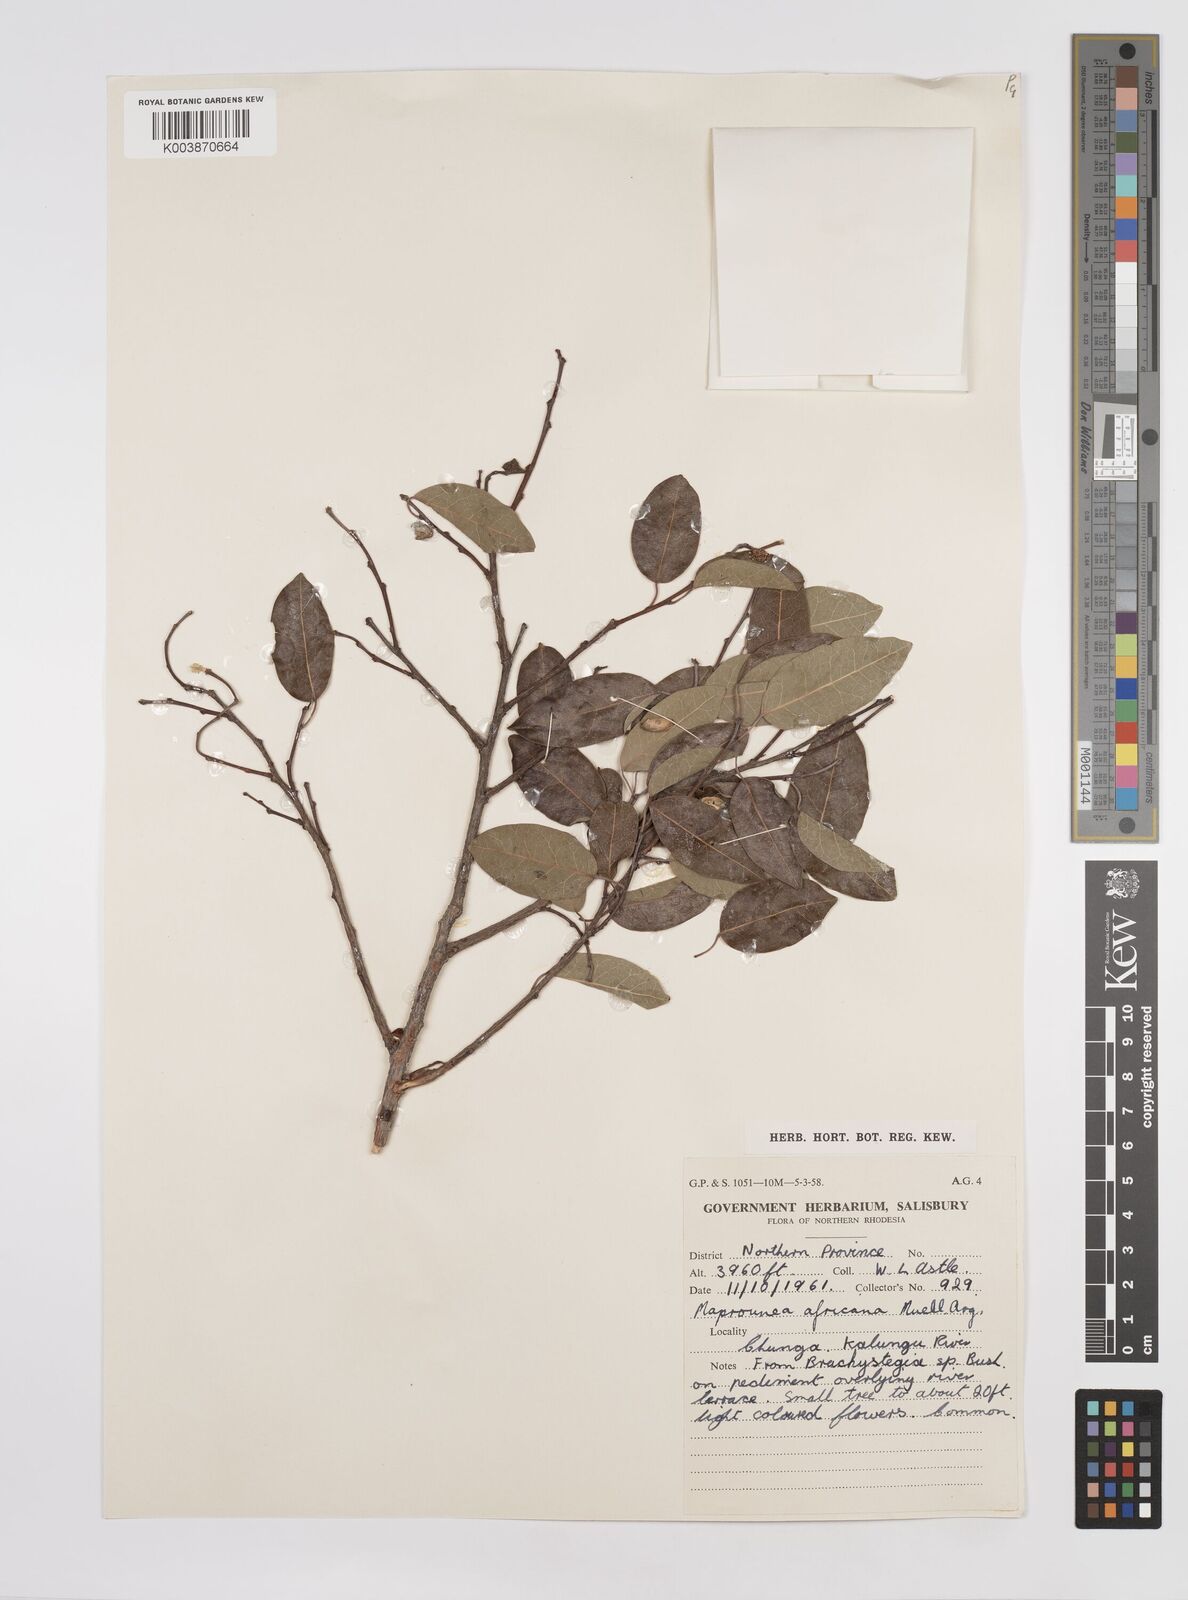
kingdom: Plantae
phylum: Tracheophyta
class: Magnoliopsida
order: Malpighiales
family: Euphorbiaceae
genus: Maprounea
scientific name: Maprounea africana
